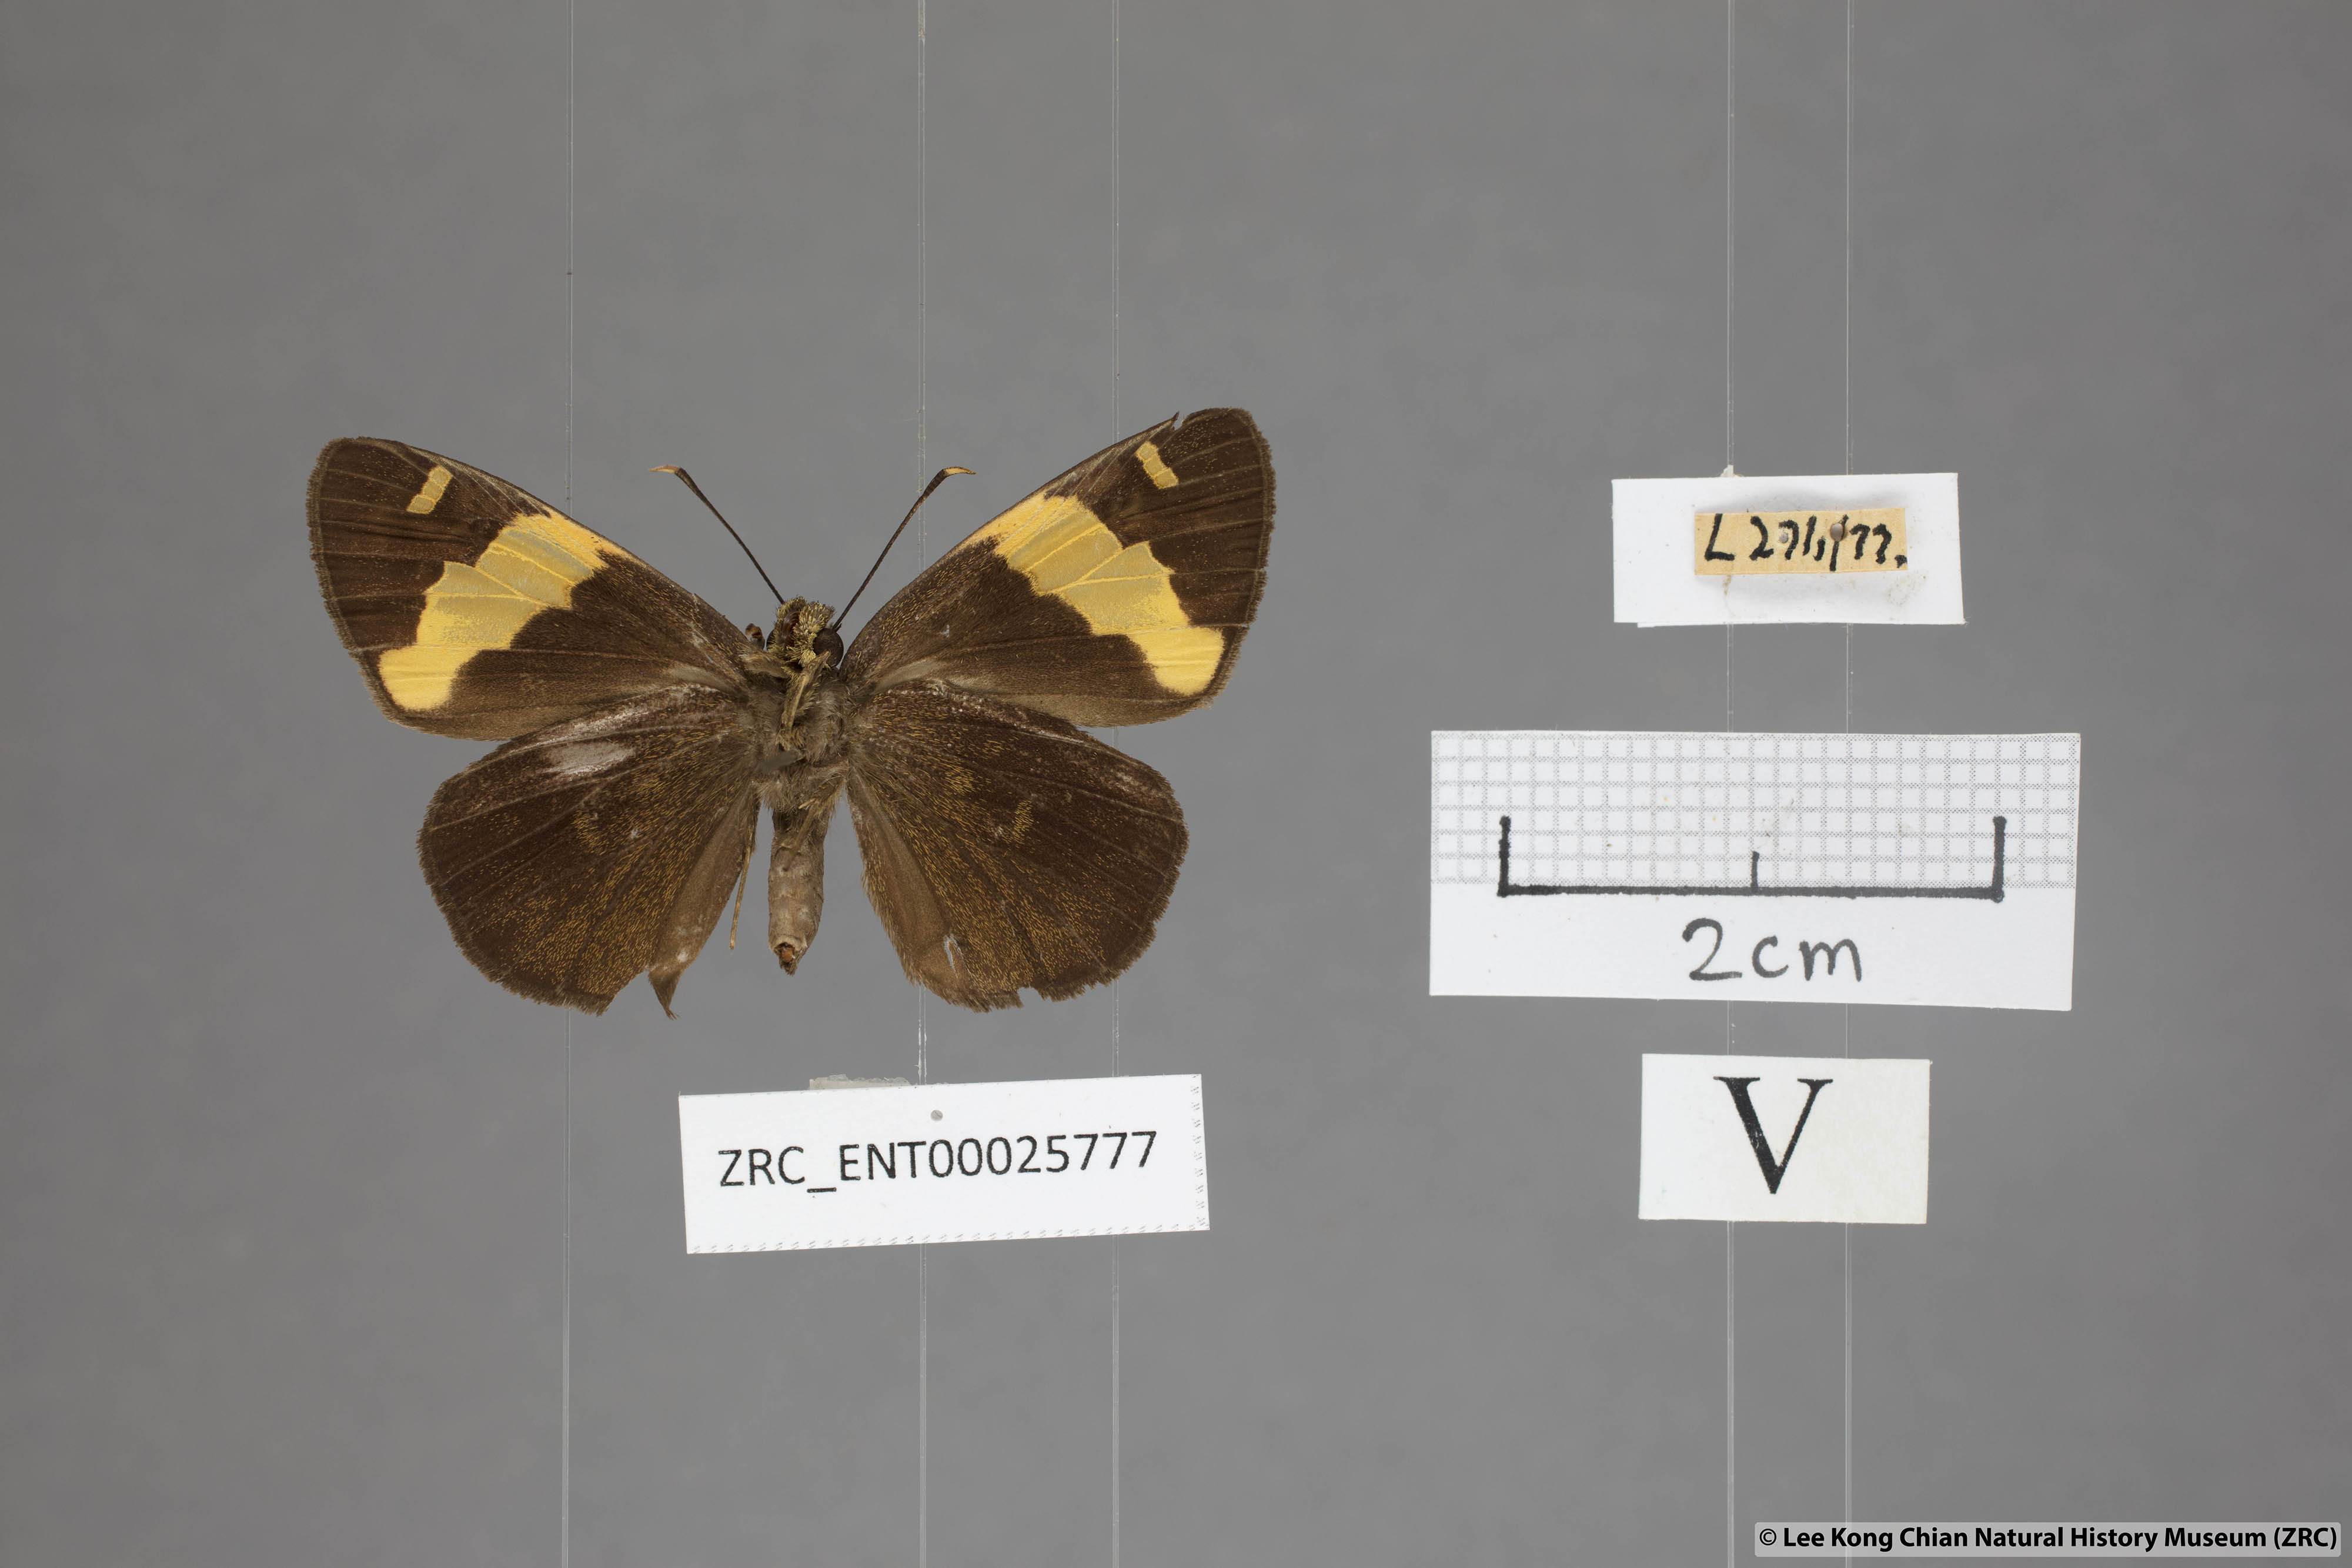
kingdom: Animalia
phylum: Arthropoda
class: Insecta
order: Lepidoptera
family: Hesperiidae
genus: Celaenorrhinus
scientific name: Celaenorrhinus aurivittata
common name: Dark yellow-banded flat
